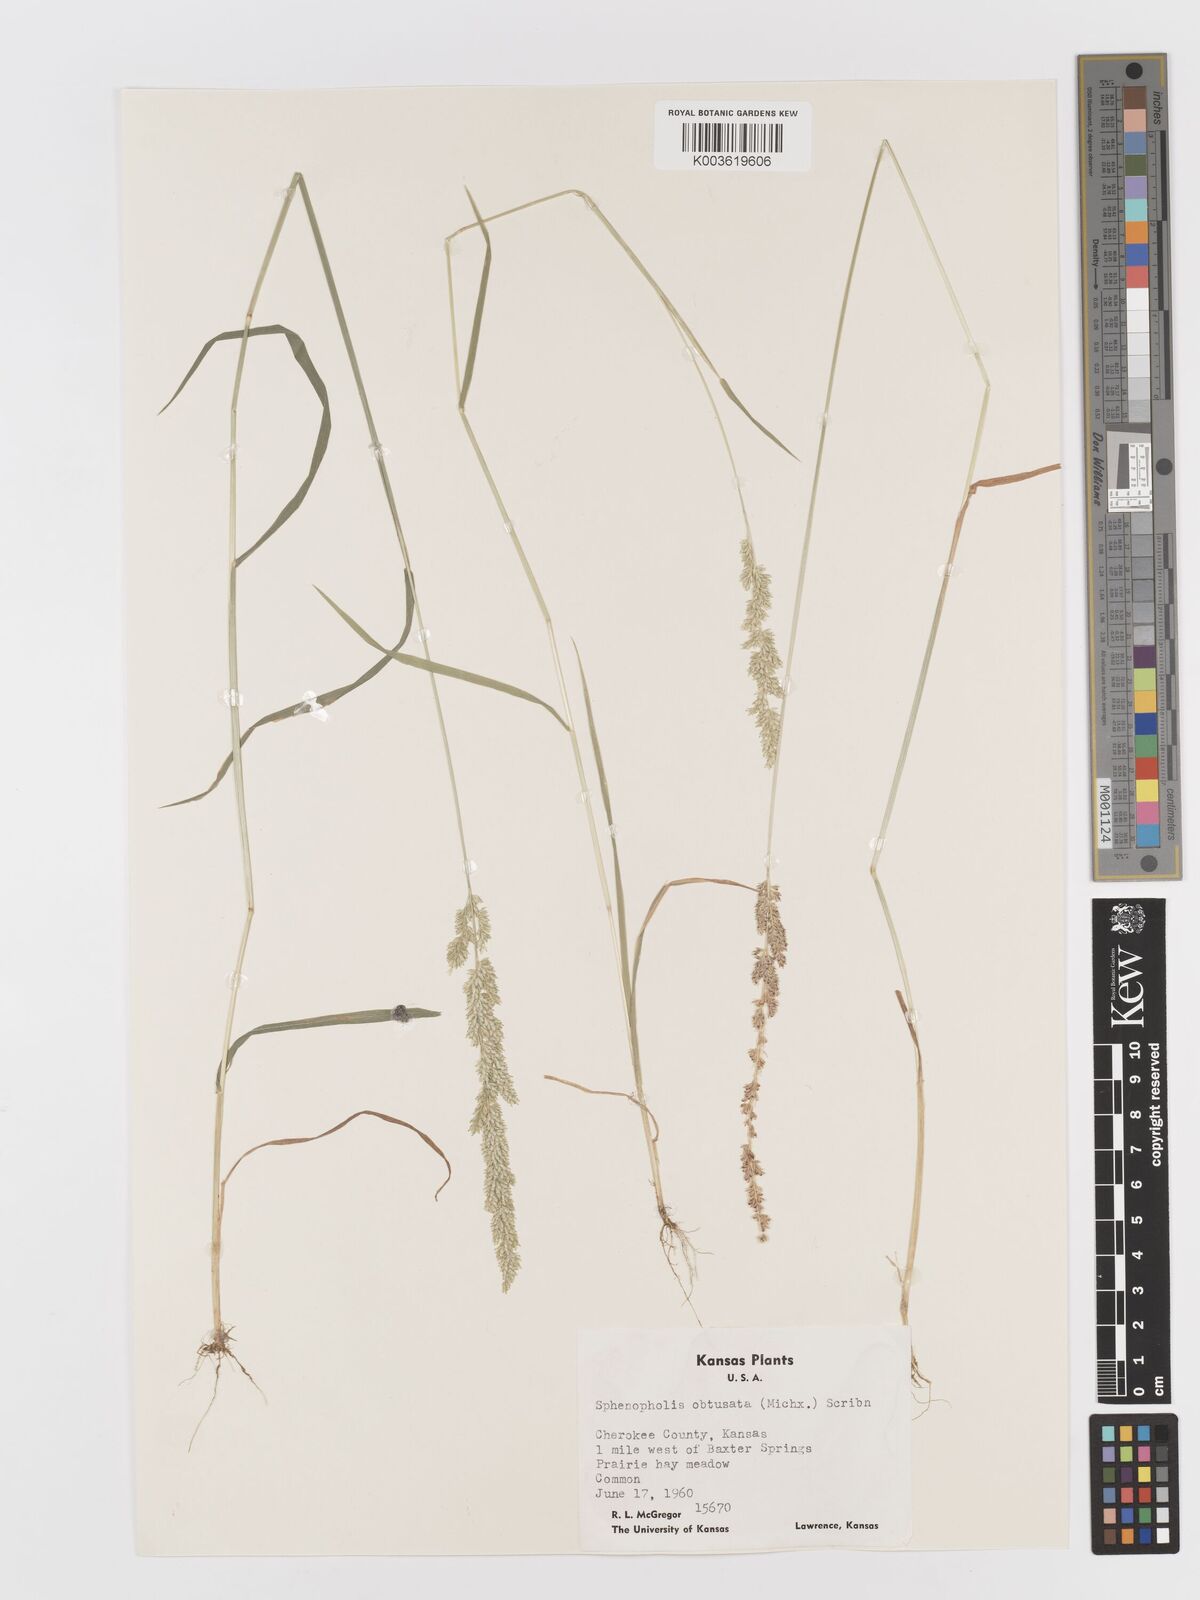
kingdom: Plantae
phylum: Tracheophyta
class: Liliopsida
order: Poales
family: Poaceae
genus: Sphenopholis
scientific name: Sphenopholis obtusata
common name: Prairie grass
